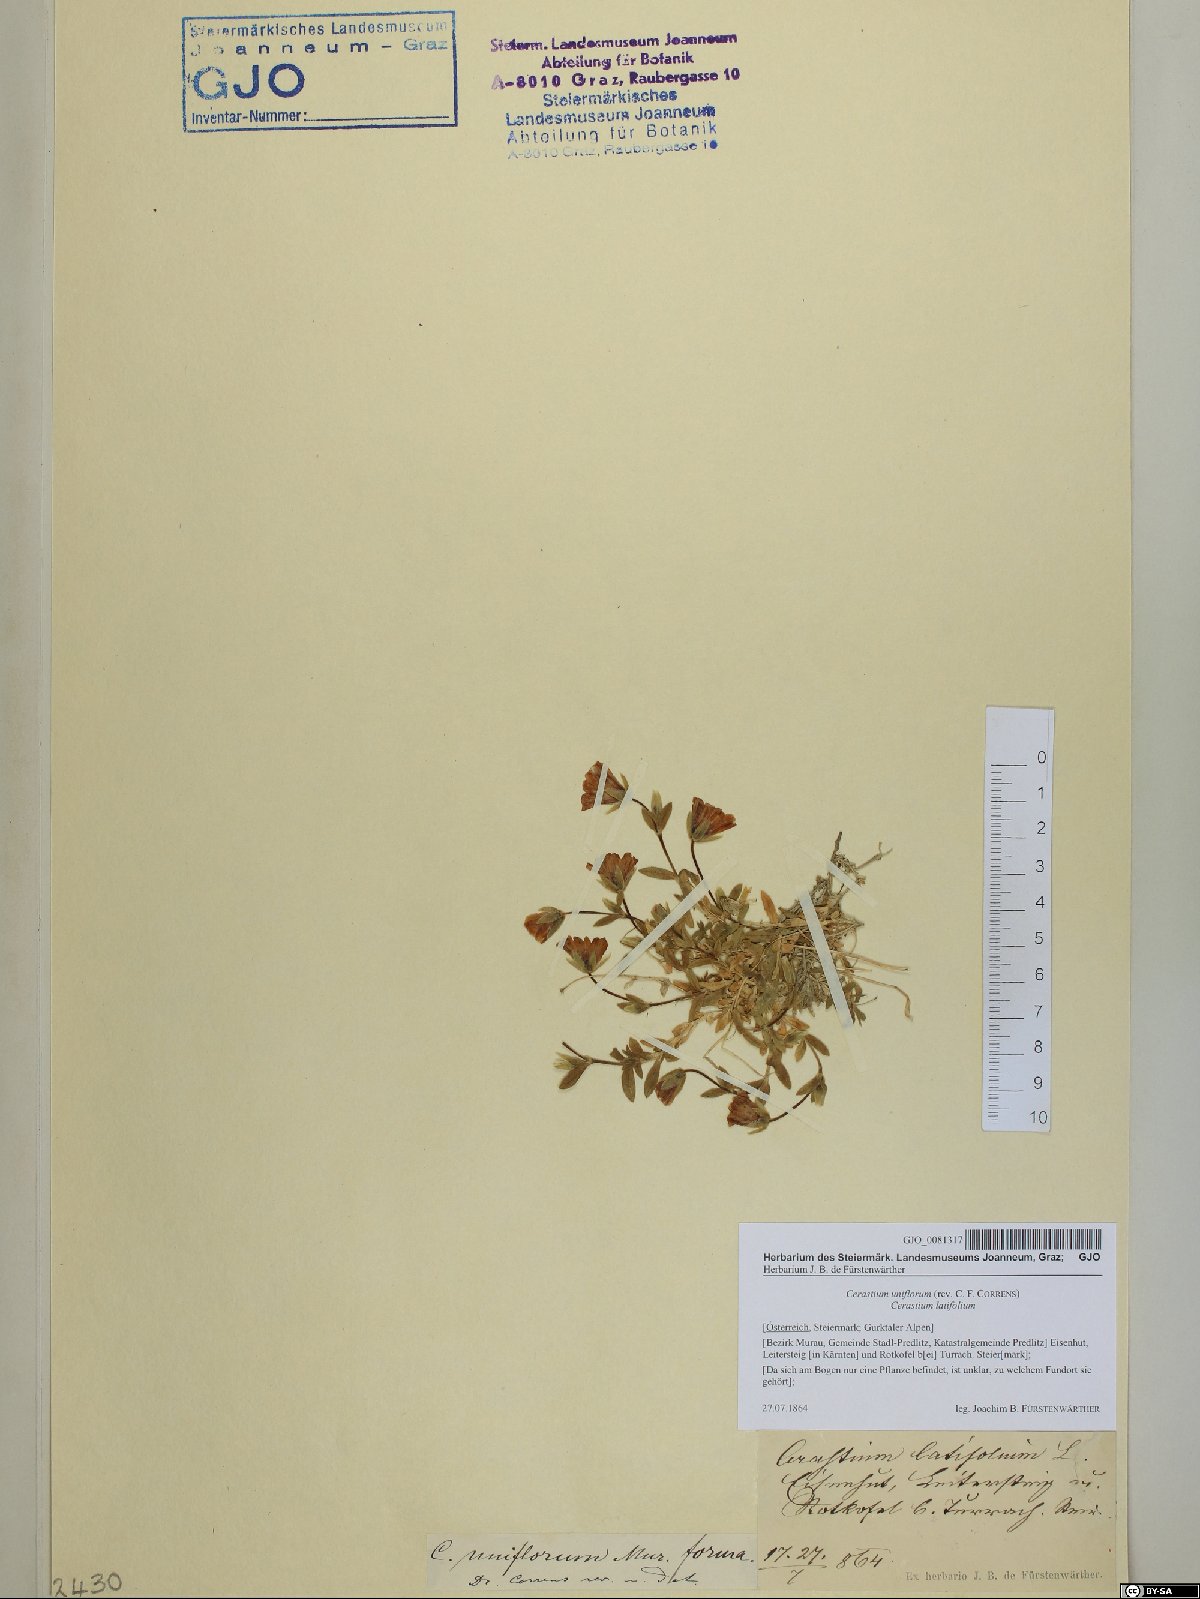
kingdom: Plantae
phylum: Tracheophyta
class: Magnoliopsida
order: Caryophyllales
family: Caryophyllaceae
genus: Cerastium
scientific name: Cerastium uniflorum
